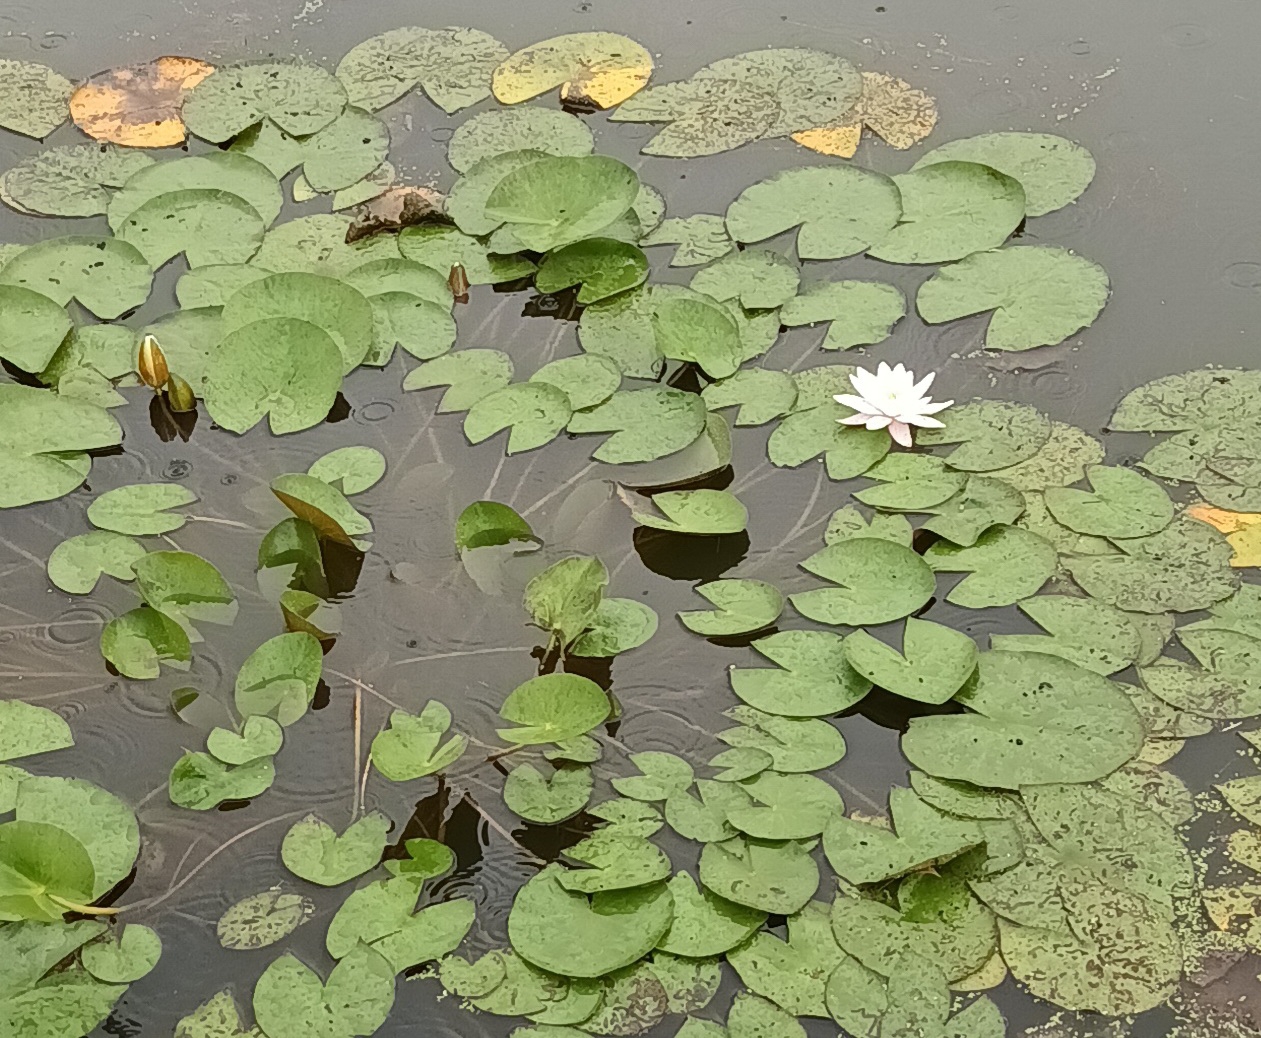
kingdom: Plantae
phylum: Tracheophyta
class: Magnoliopsida
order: Nymphaeales
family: Nymphaeaceae
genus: Nymphaea
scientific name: Nymphaea alba
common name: Hvid åkande
